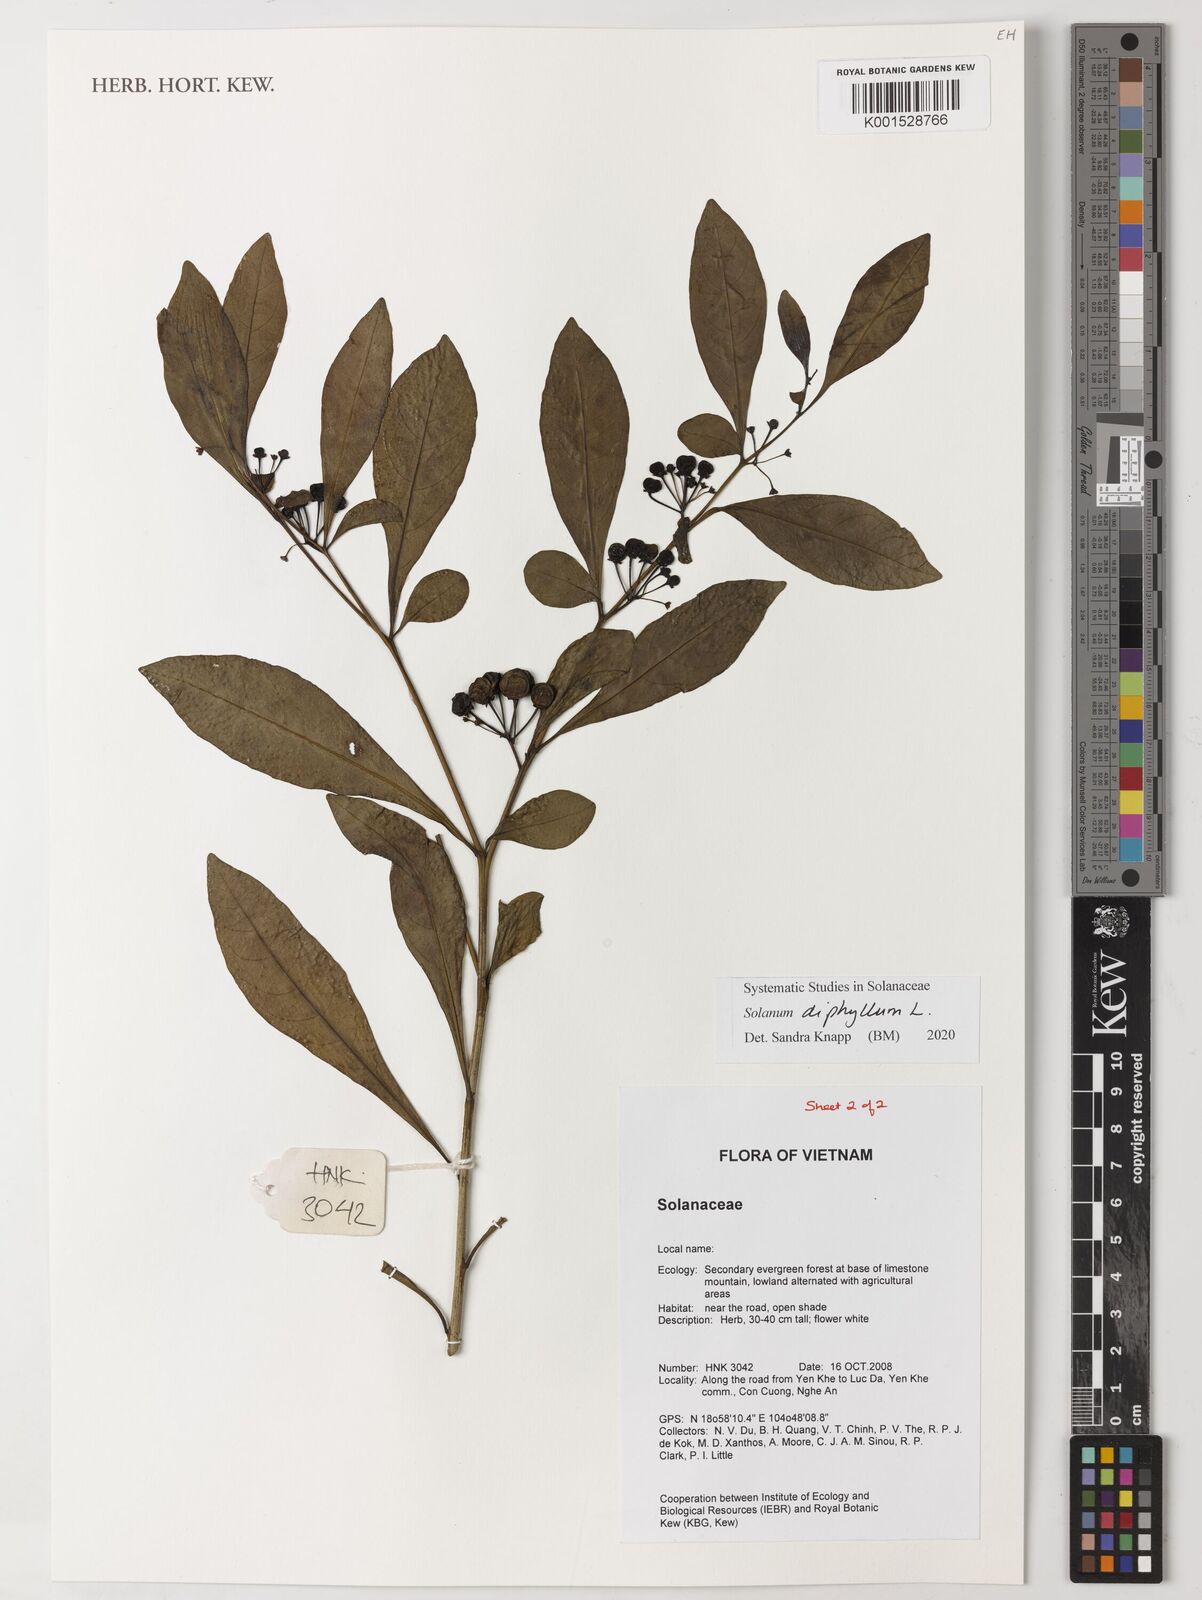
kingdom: Plantae
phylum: Tracheophyta
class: Magnoliopsida
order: Solanales
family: Solanaceae
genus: Solanum
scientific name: Solanum diphyllum
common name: Twoleaf nightshade
